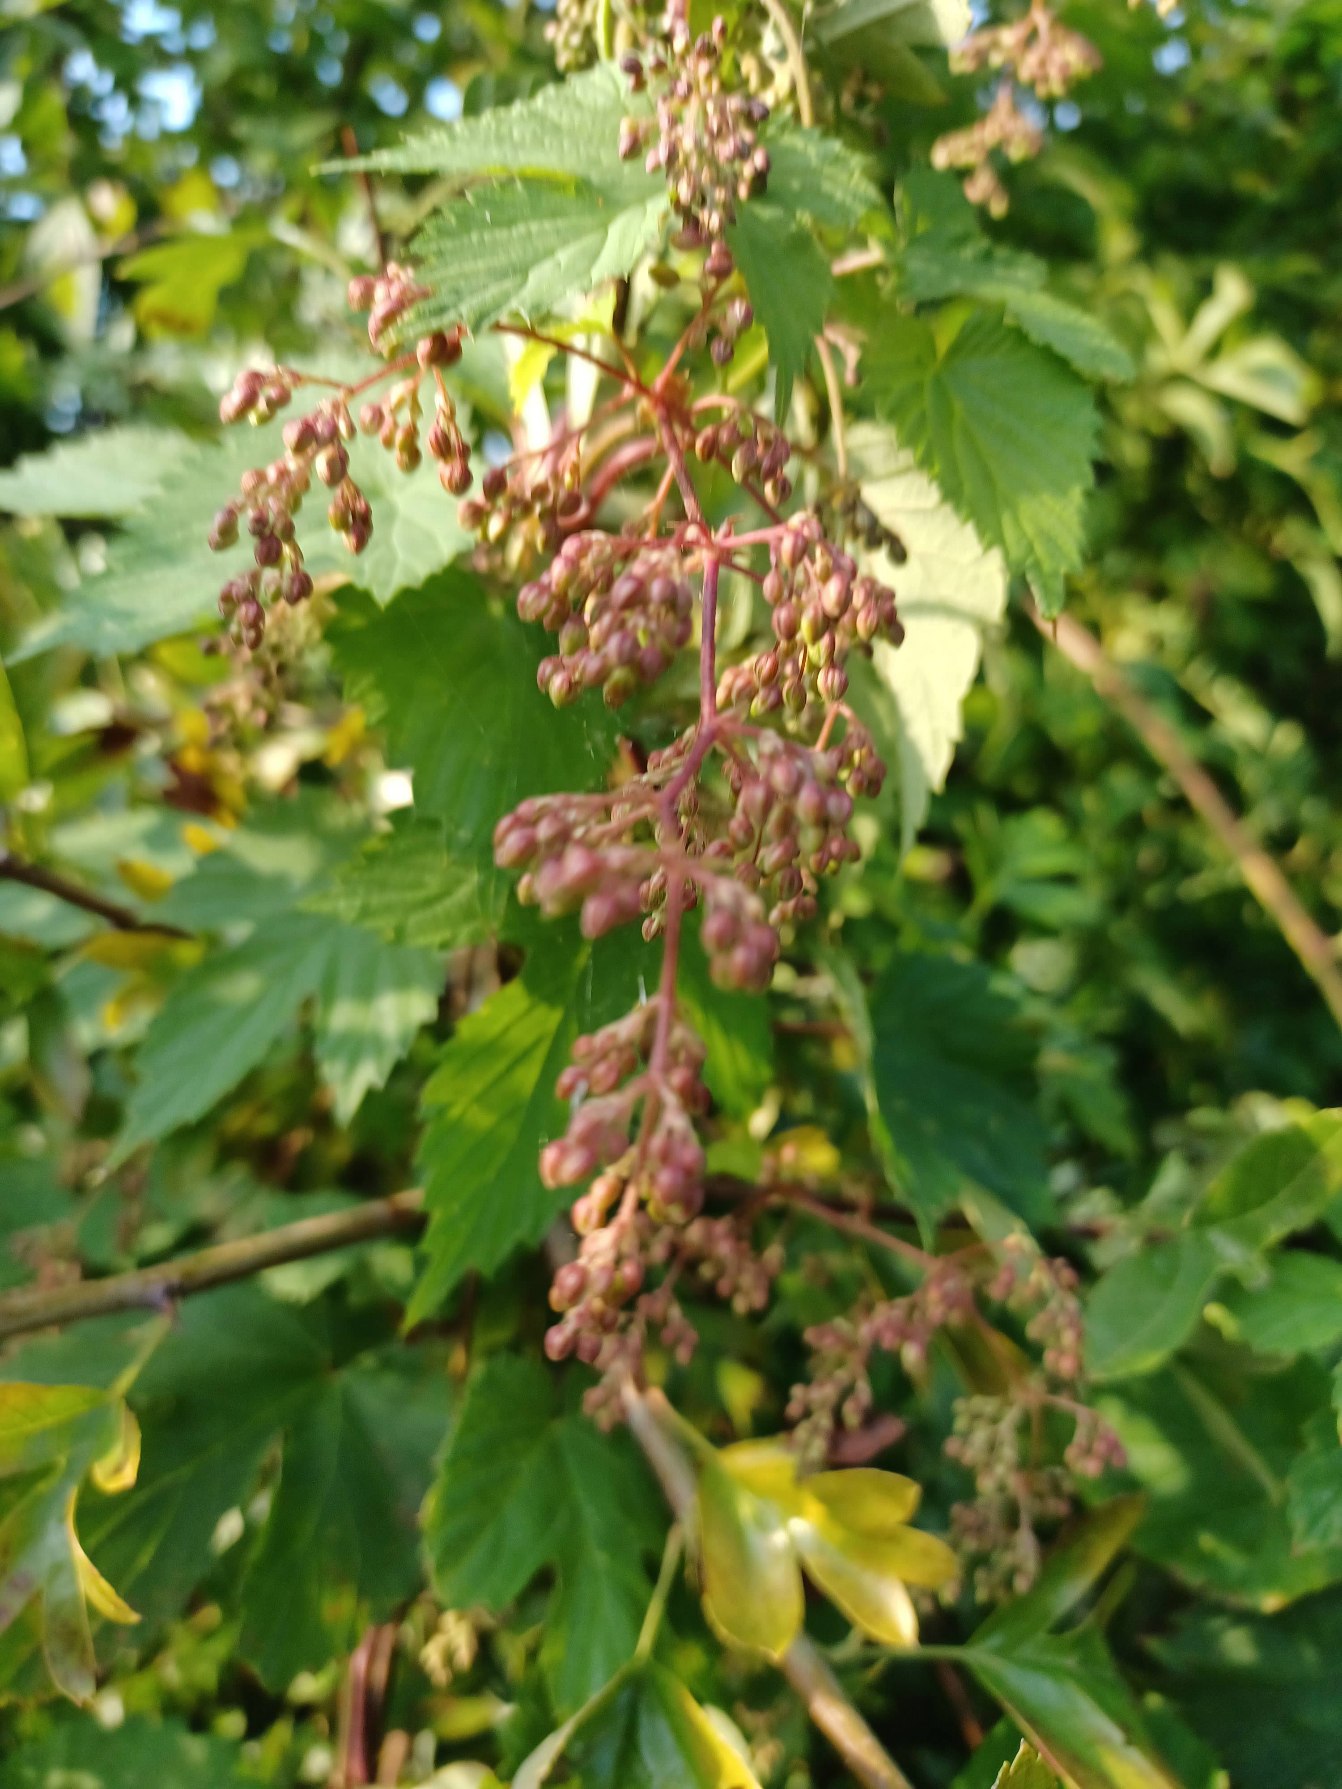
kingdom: Plantae
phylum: Tracheophyta
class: Magnoliopsida
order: Rosales
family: Cannabaceae
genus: Humulus
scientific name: Humulus lupulus
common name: Humle
